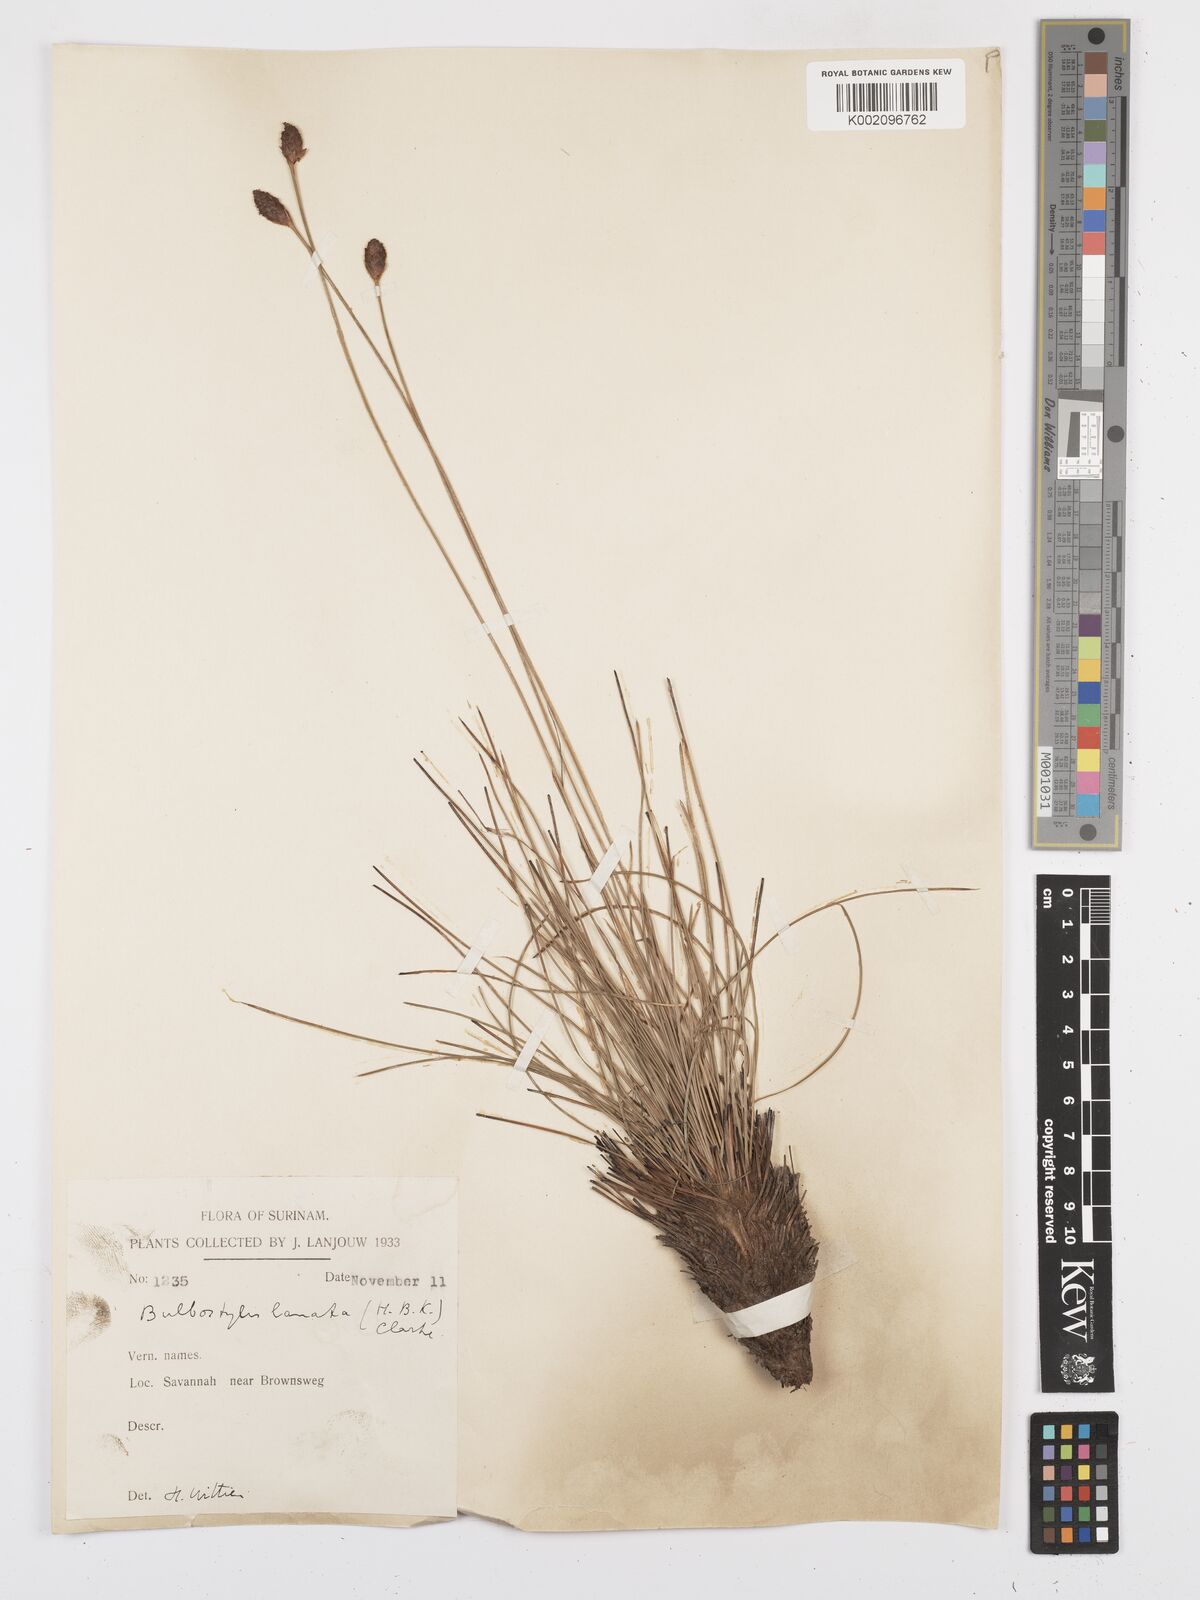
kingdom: Plantae
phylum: Tracheophyta
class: Liliopsida
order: Poales
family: Cyperaceae
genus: Bulbostylis
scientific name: Bulbostylis
